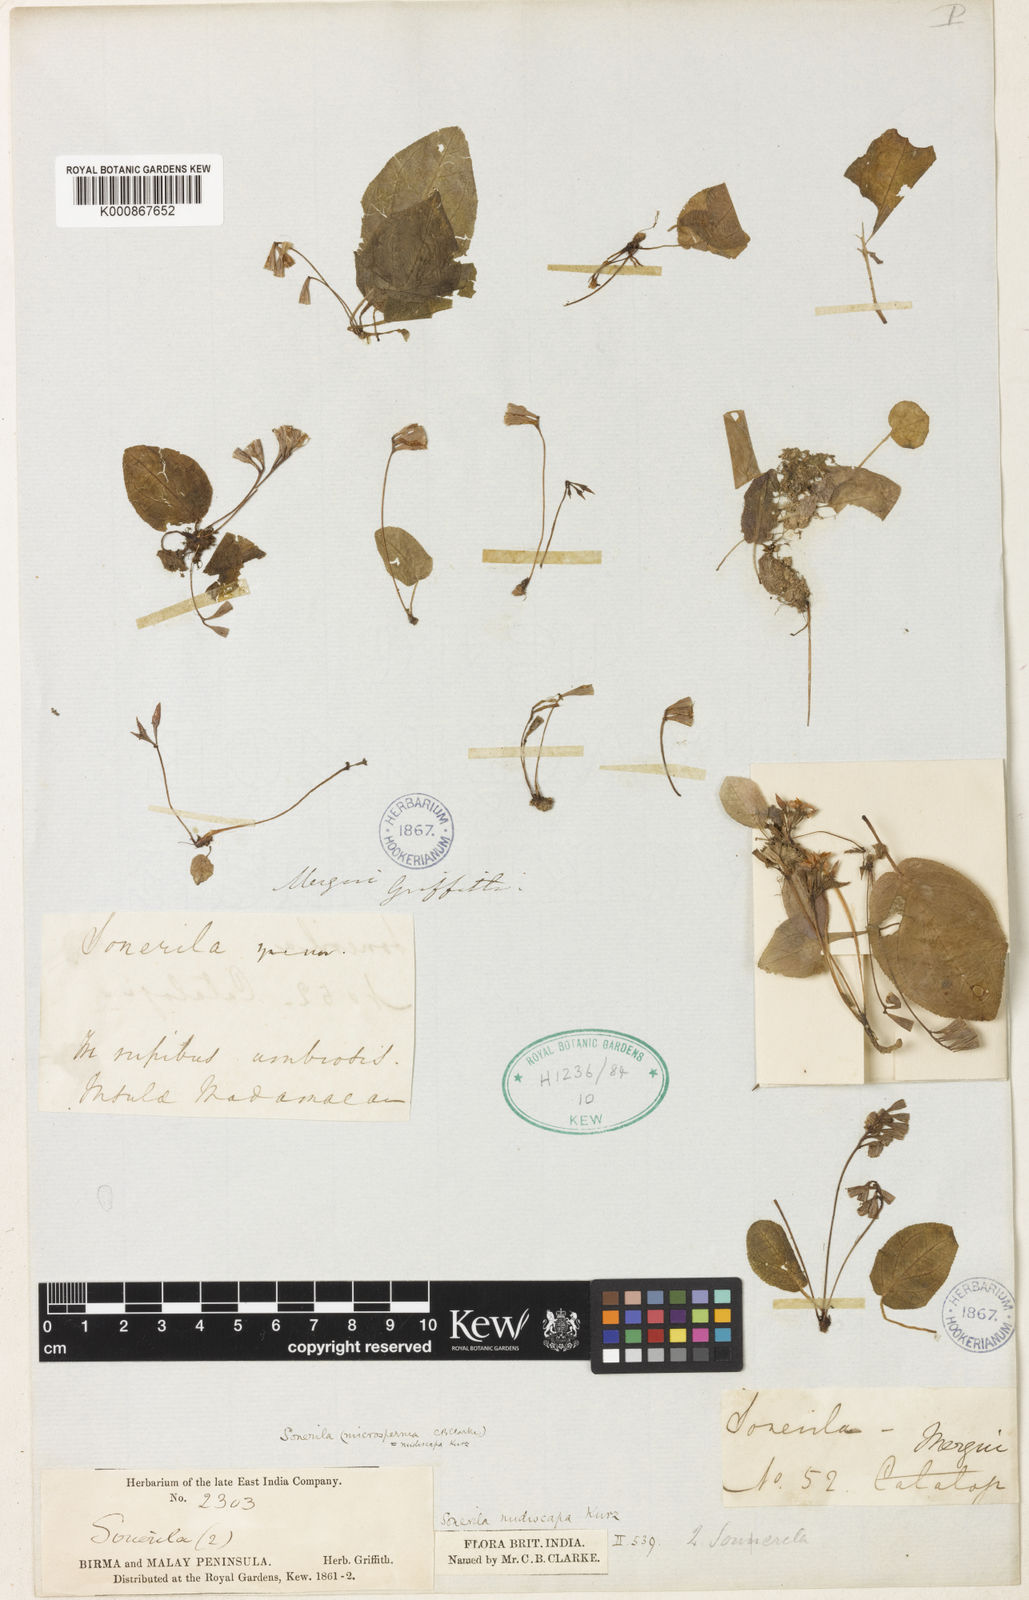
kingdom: Plantae
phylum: Tracheophyta
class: Magnoliopsida
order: Myrtales
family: Melastomataceae
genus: Sonerila
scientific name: Sonerila nudiscapa
